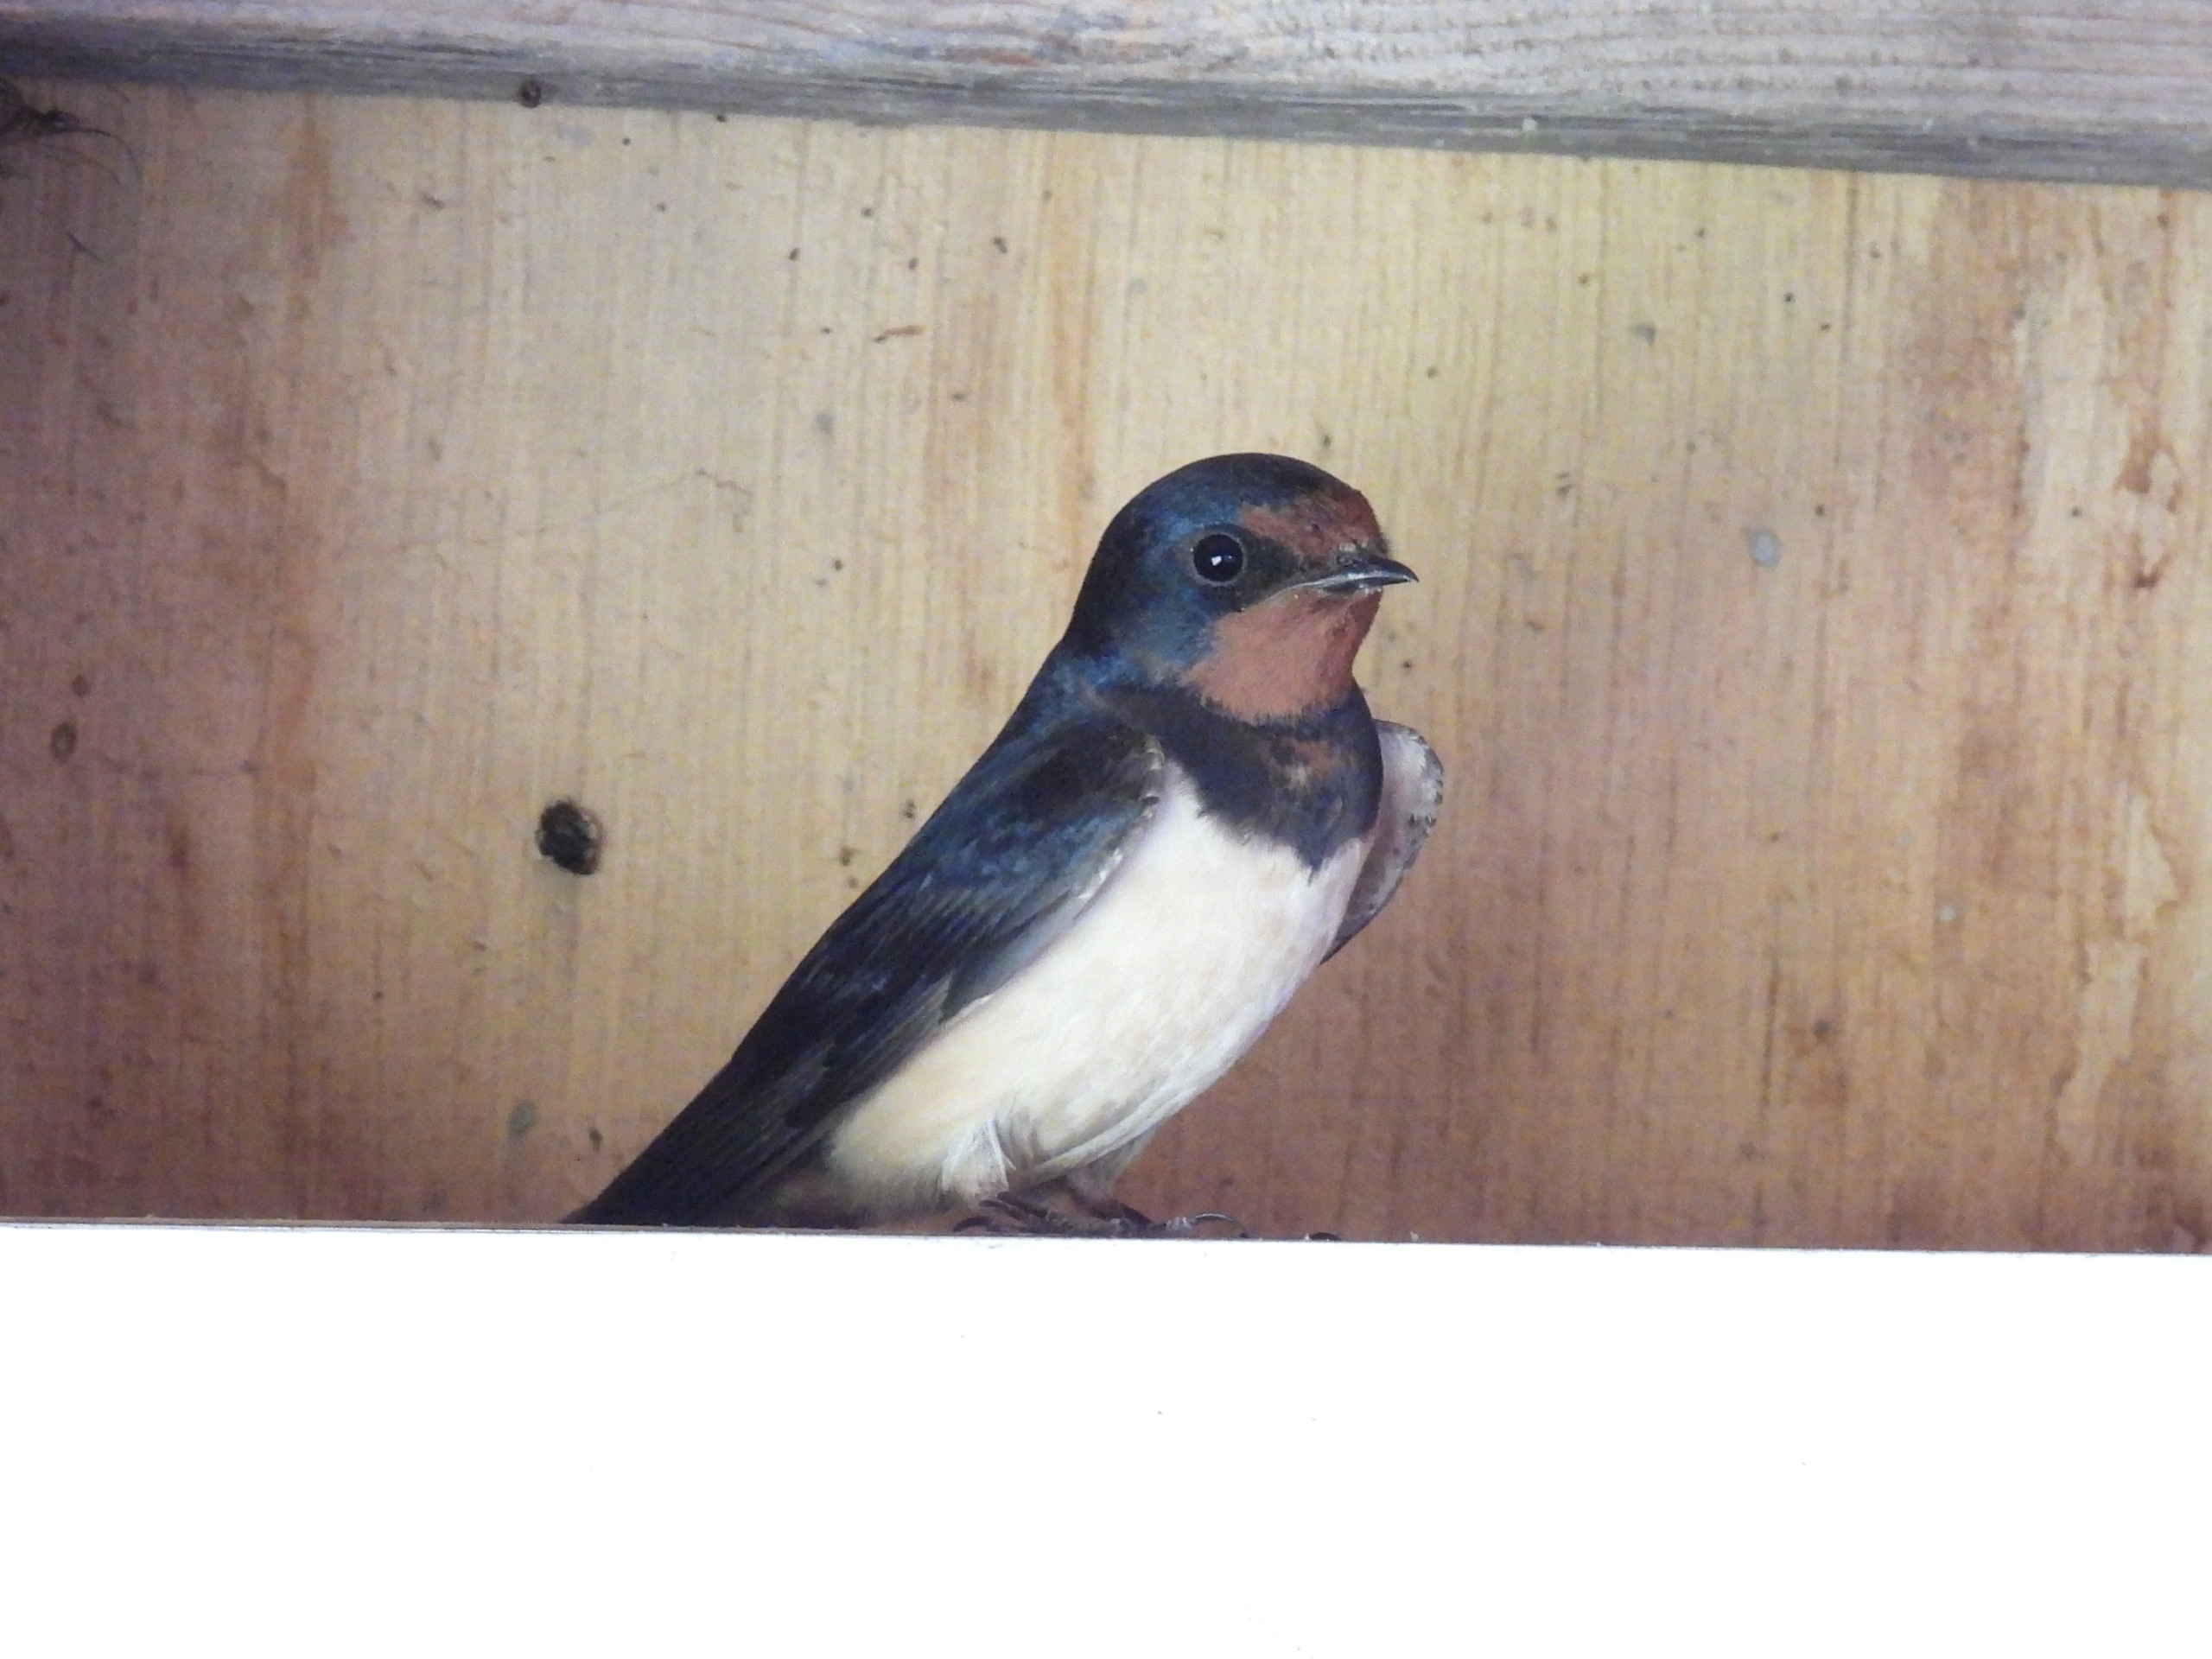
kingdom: Animalia
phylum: Chordata
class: Aves
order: Passeriformes
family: Hirundinidae
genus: Hirundo
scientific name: Hirundo rustica
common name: Landsvale
